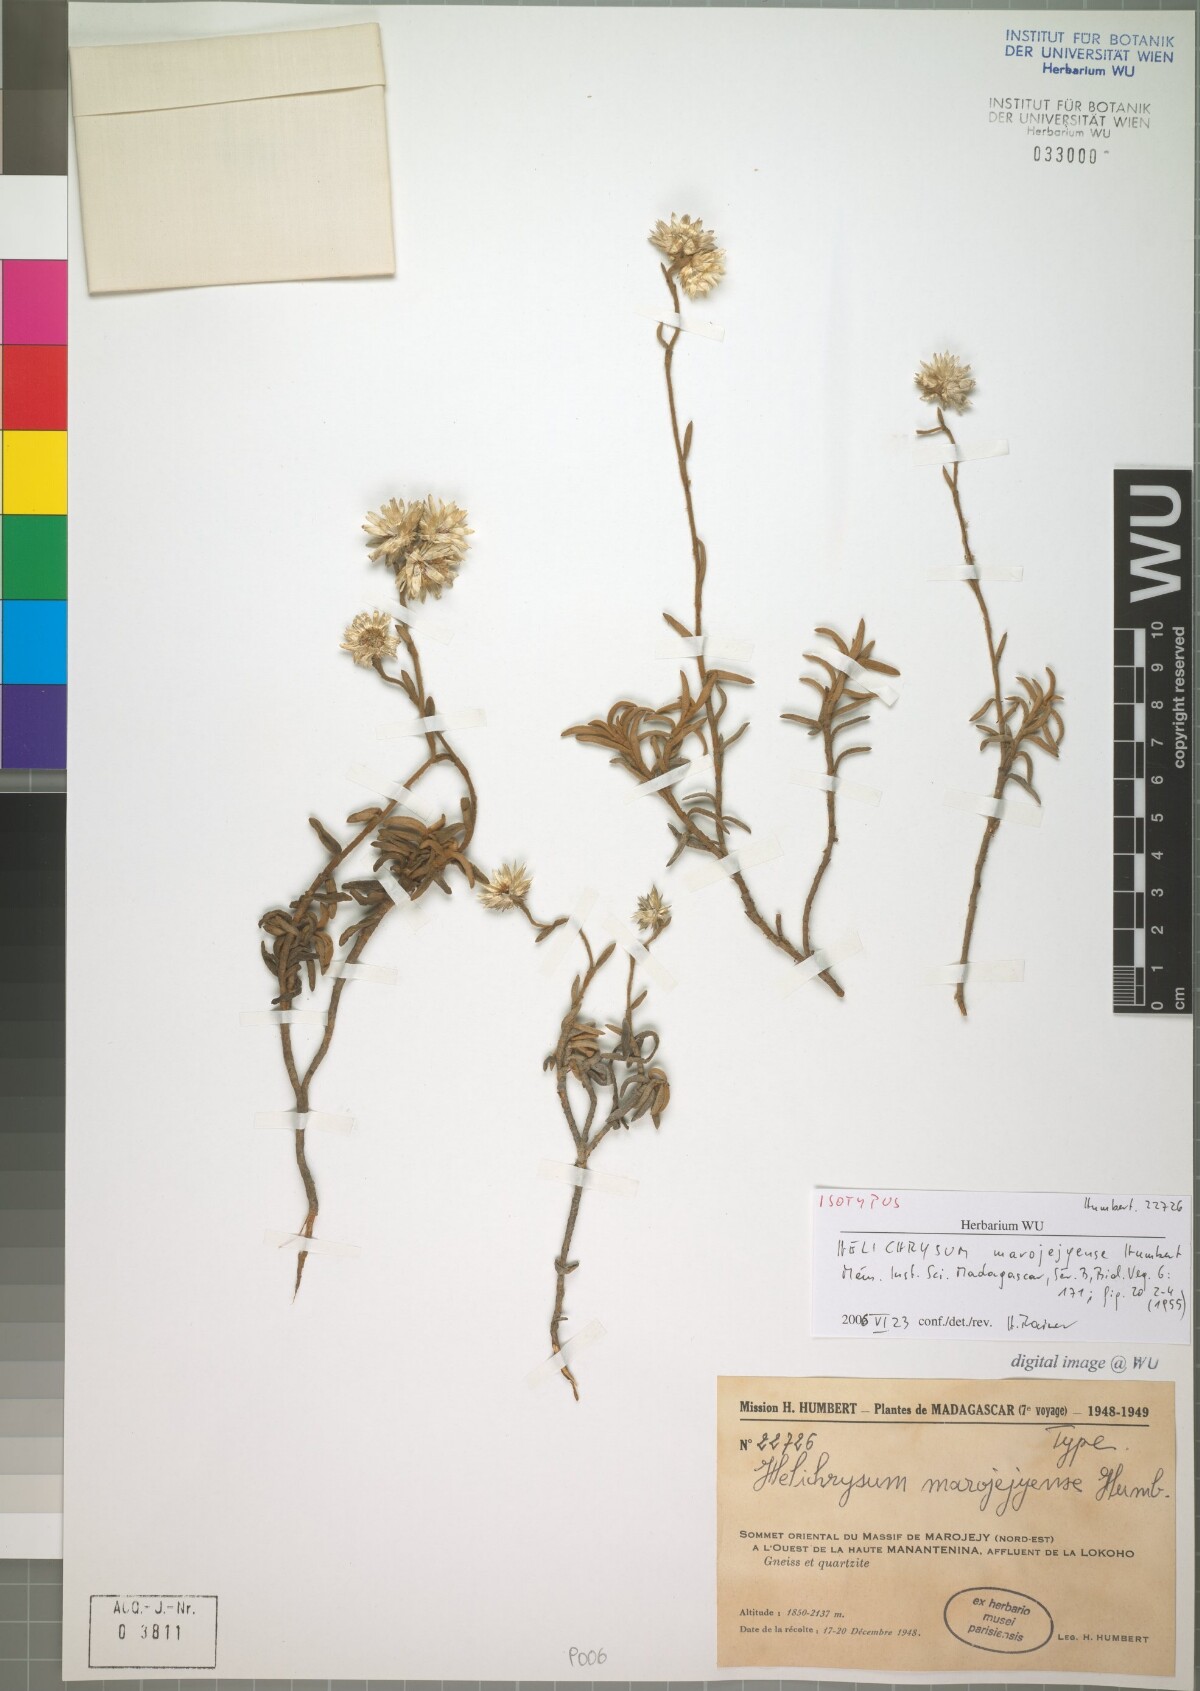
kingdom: Plantae
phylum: Tracheophyta
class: Magnoliopsida
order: Asterales
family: Asteraceae
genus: Helichrysum
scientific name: Helichrysum marojejyense
